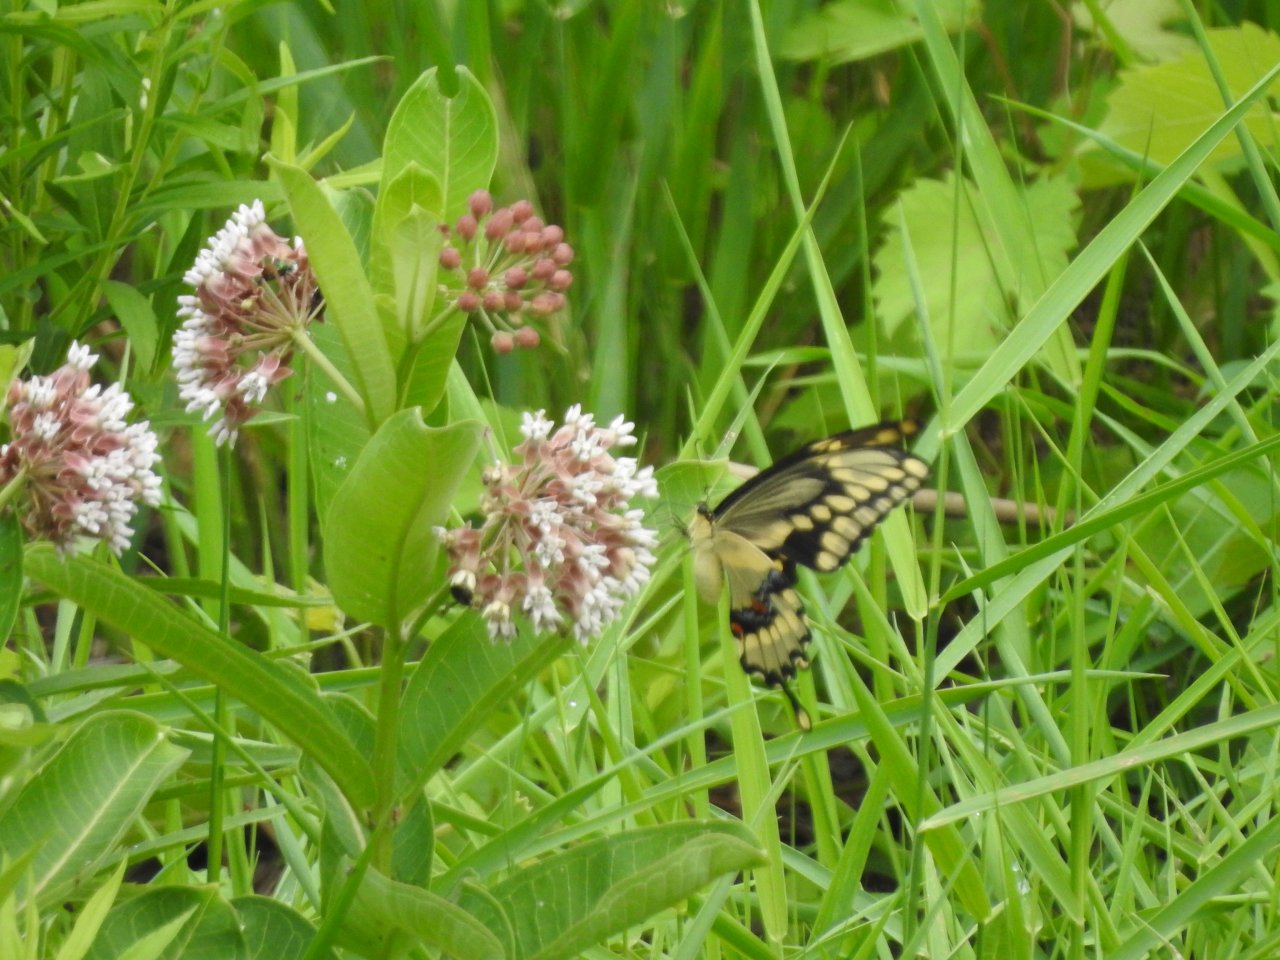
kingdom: Animalia
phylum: Arthropoda
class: Insecta
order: Lepidoptera
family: Papilionidae
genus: Papilio
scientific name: Papilio cresphontes
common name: Eastern Giant Swallowtail
